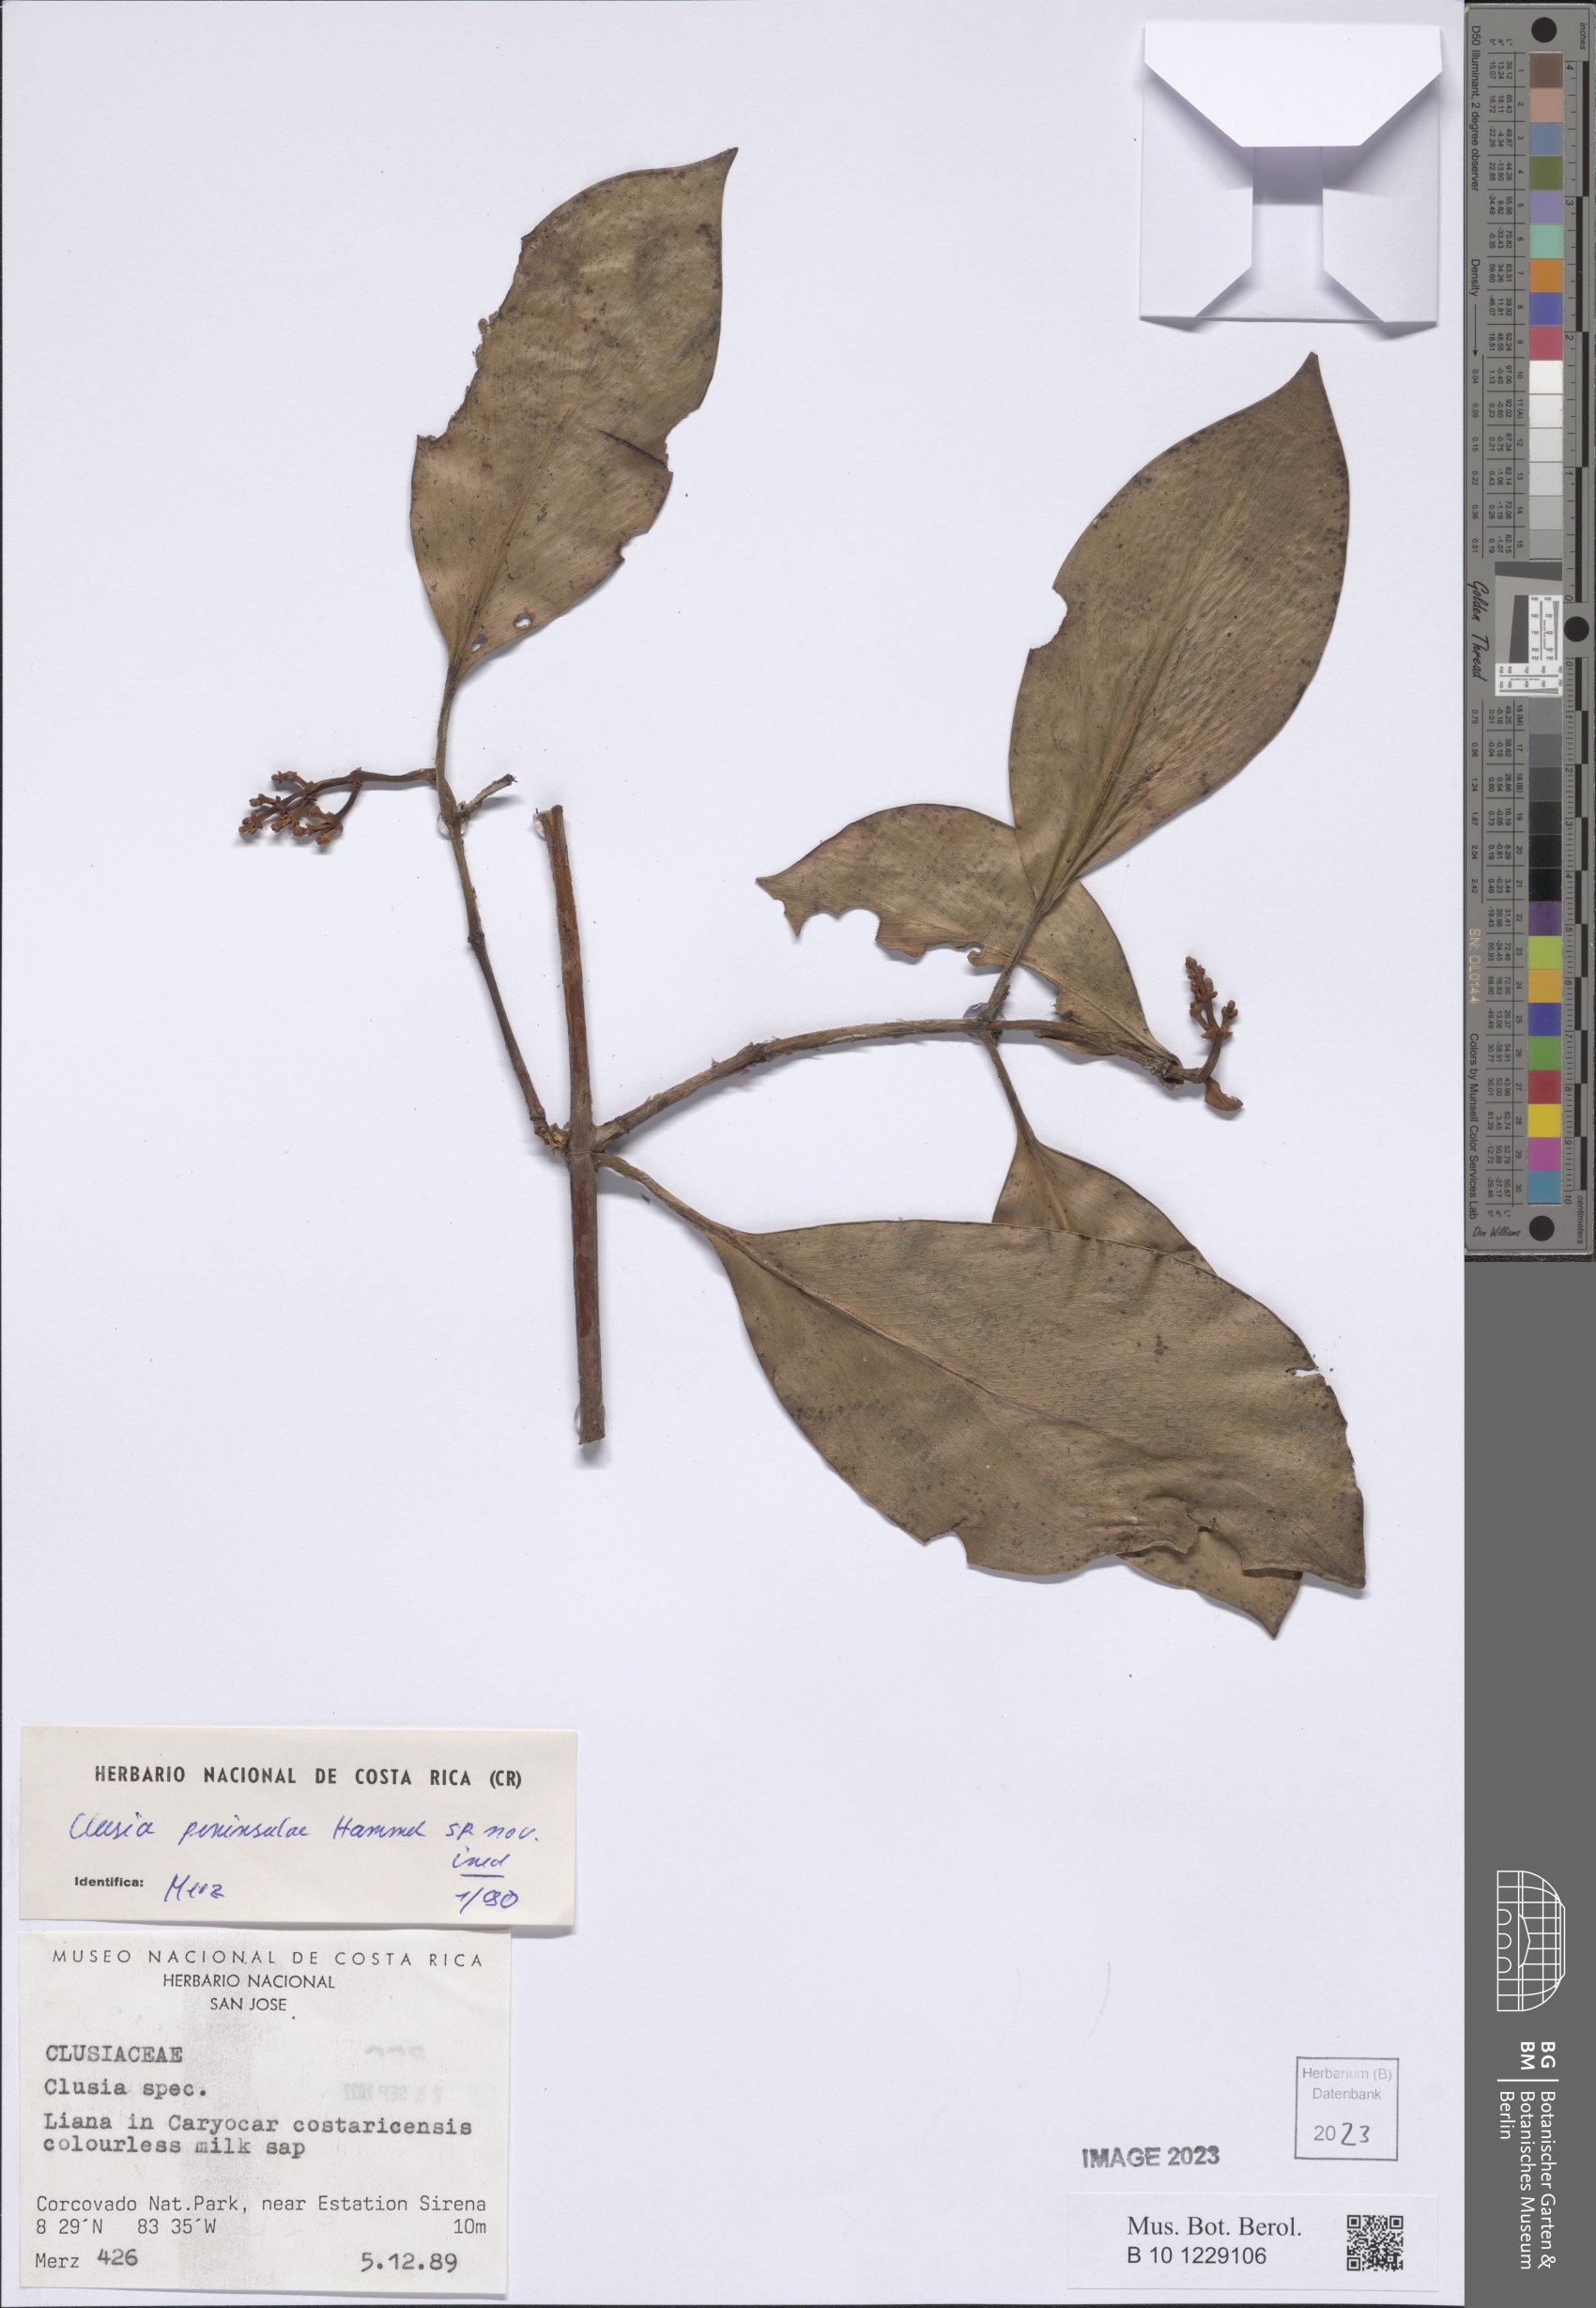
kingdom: Plantae
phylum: Tracheophyta
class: Magnoliopsida
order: Malpighiales
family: Clusiaceae
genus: Clusia
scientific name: Clusia peninsulae
